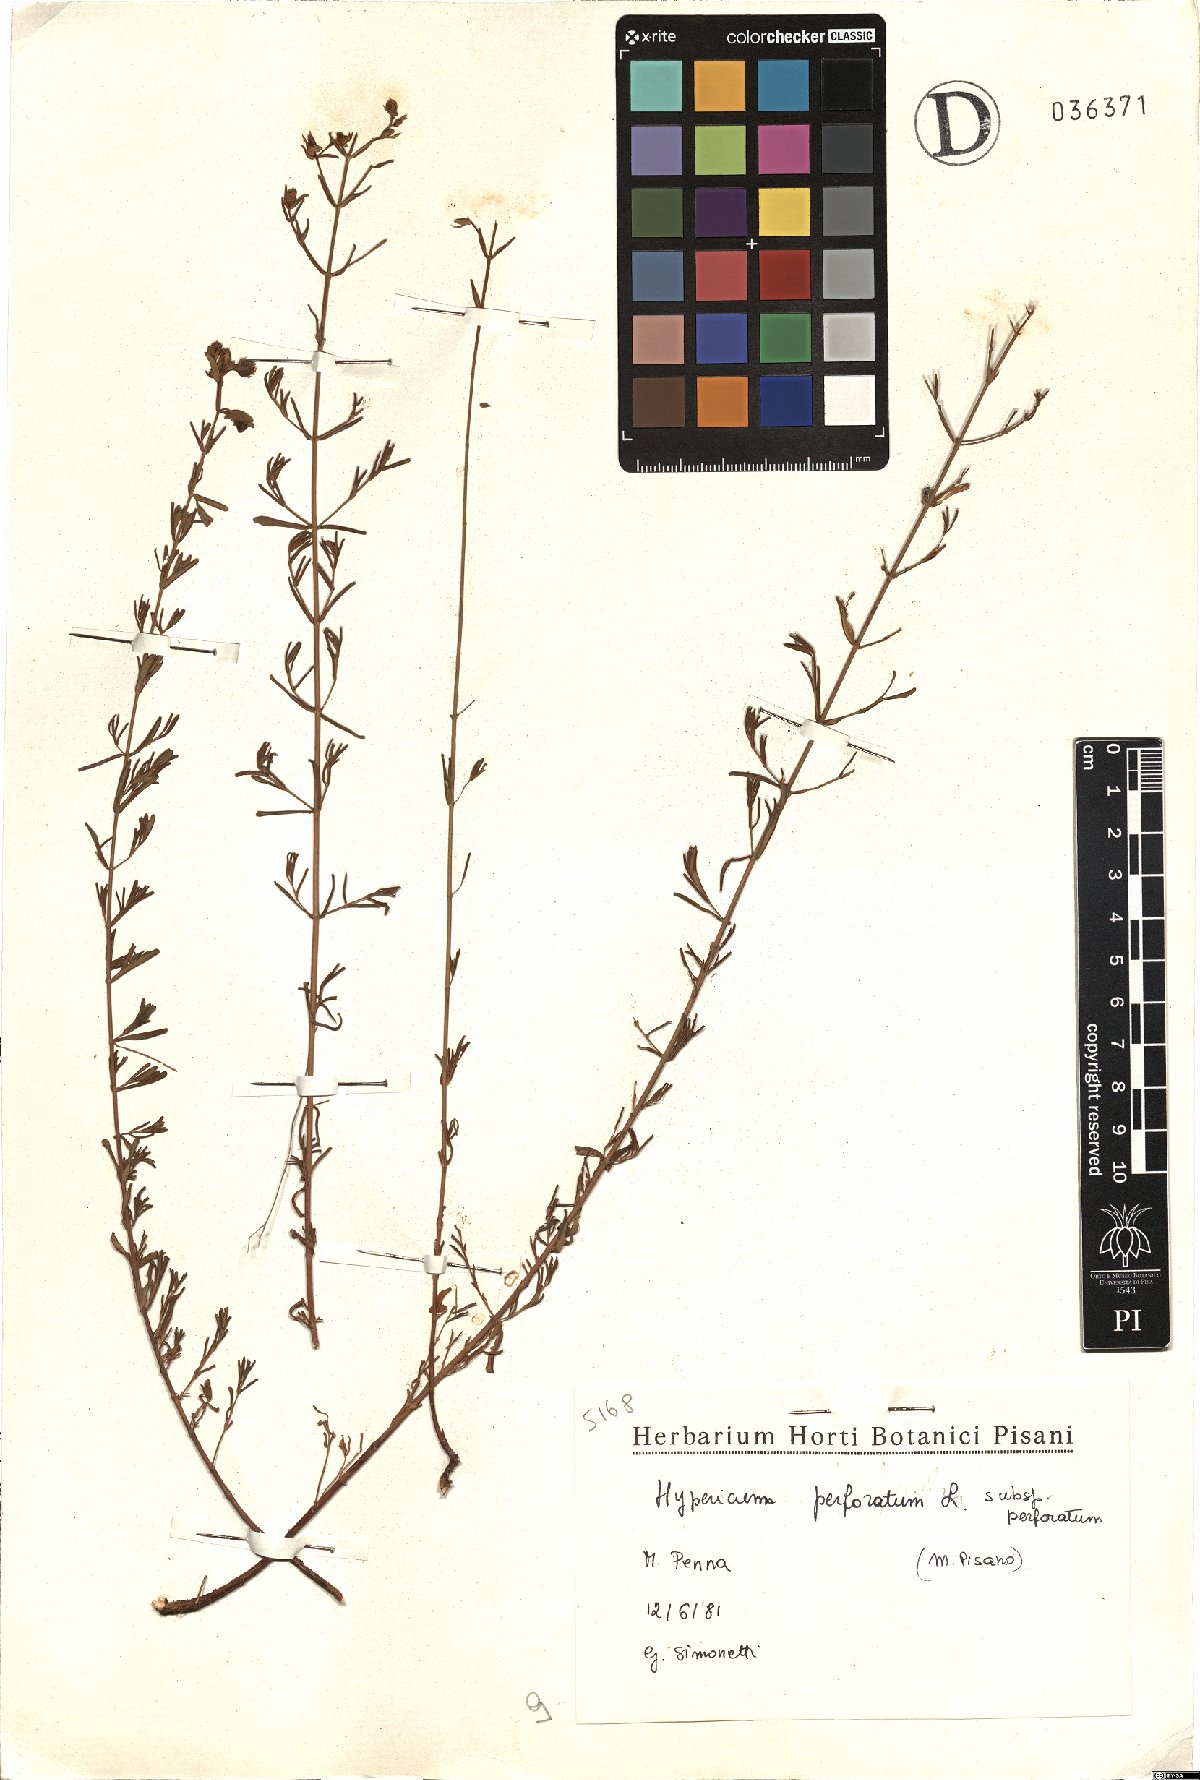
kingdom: Plantae
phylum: Tracheophyta
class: Magnoliopsida
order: Malpighiales
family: Hypericaceae
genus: Hypericum
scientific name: Hypericum perforatum
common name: Common st. johnswort
